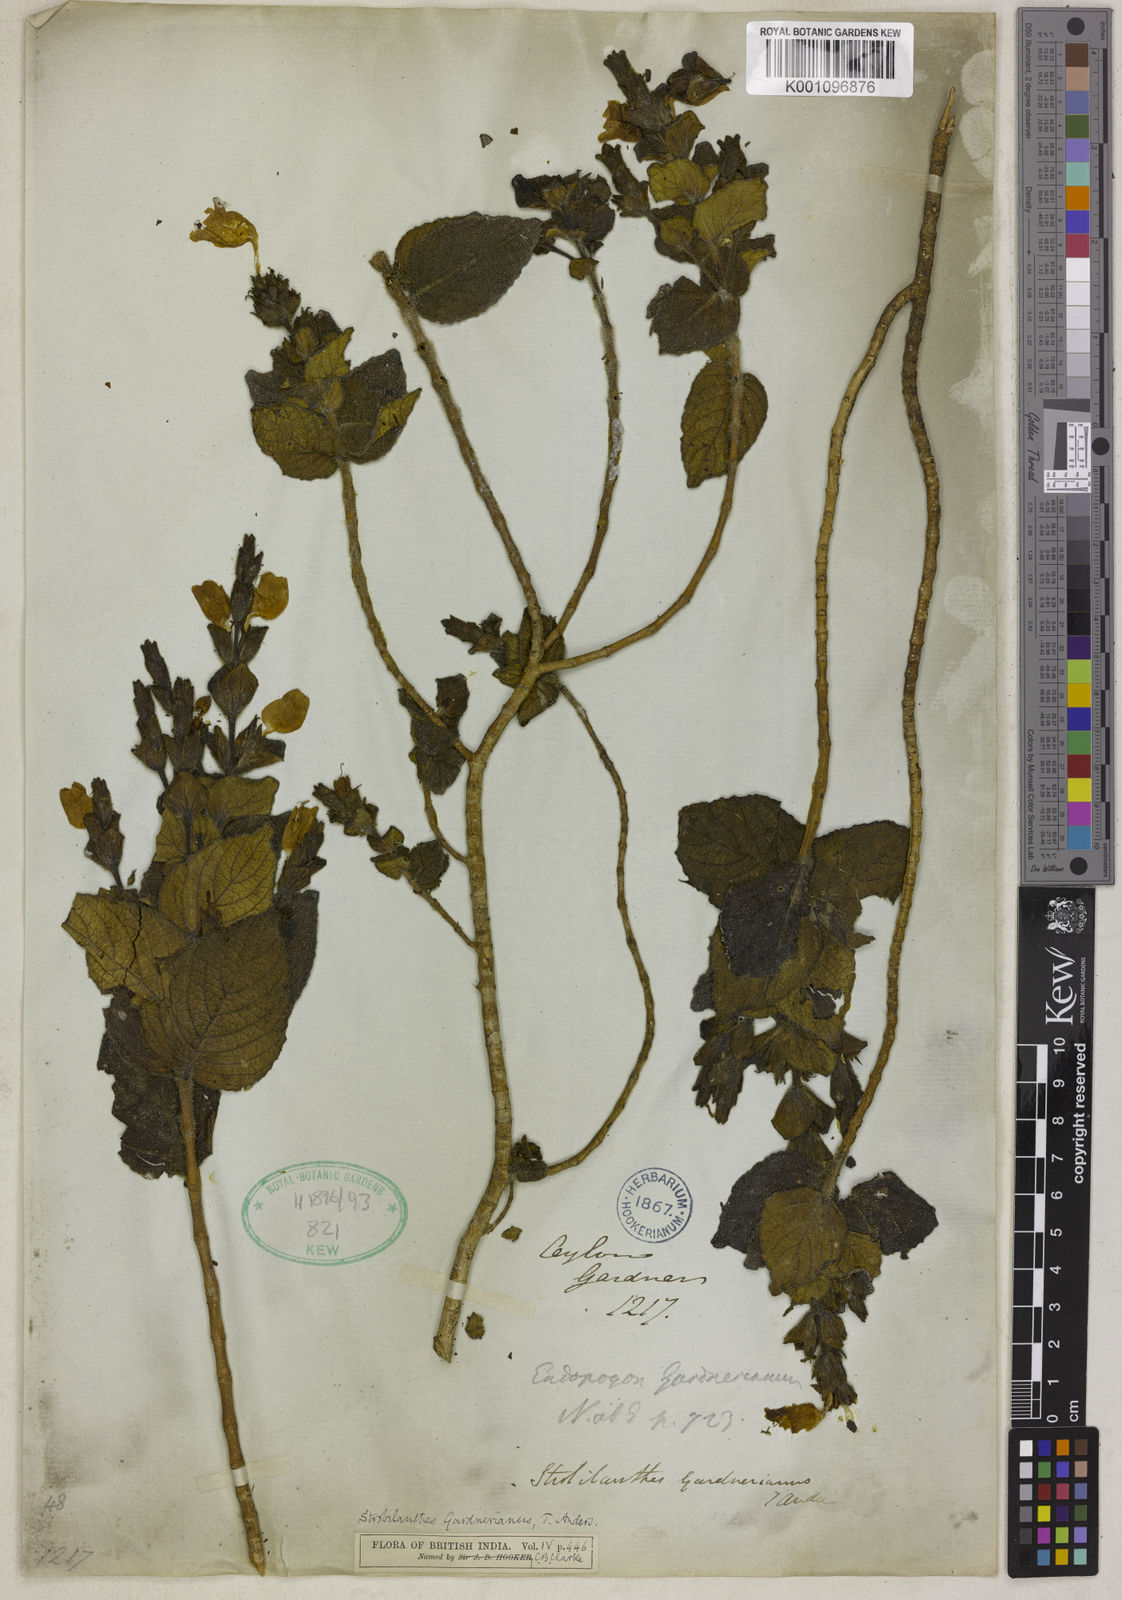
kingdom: Plantae
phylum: Tracheophyta
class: Magnoliopsida
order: Lamiales
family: Acanthaceae
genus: Strobilanthes
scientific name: Strobilanthes gardneriana
